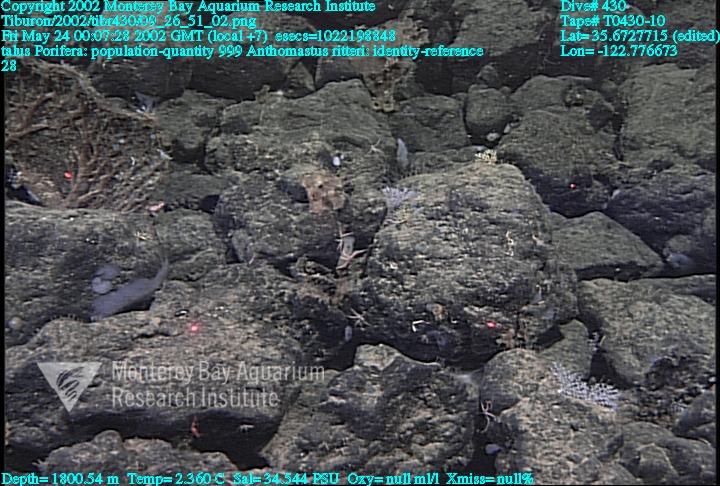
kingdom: Animalia
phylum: Porifera
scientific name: Porifera
